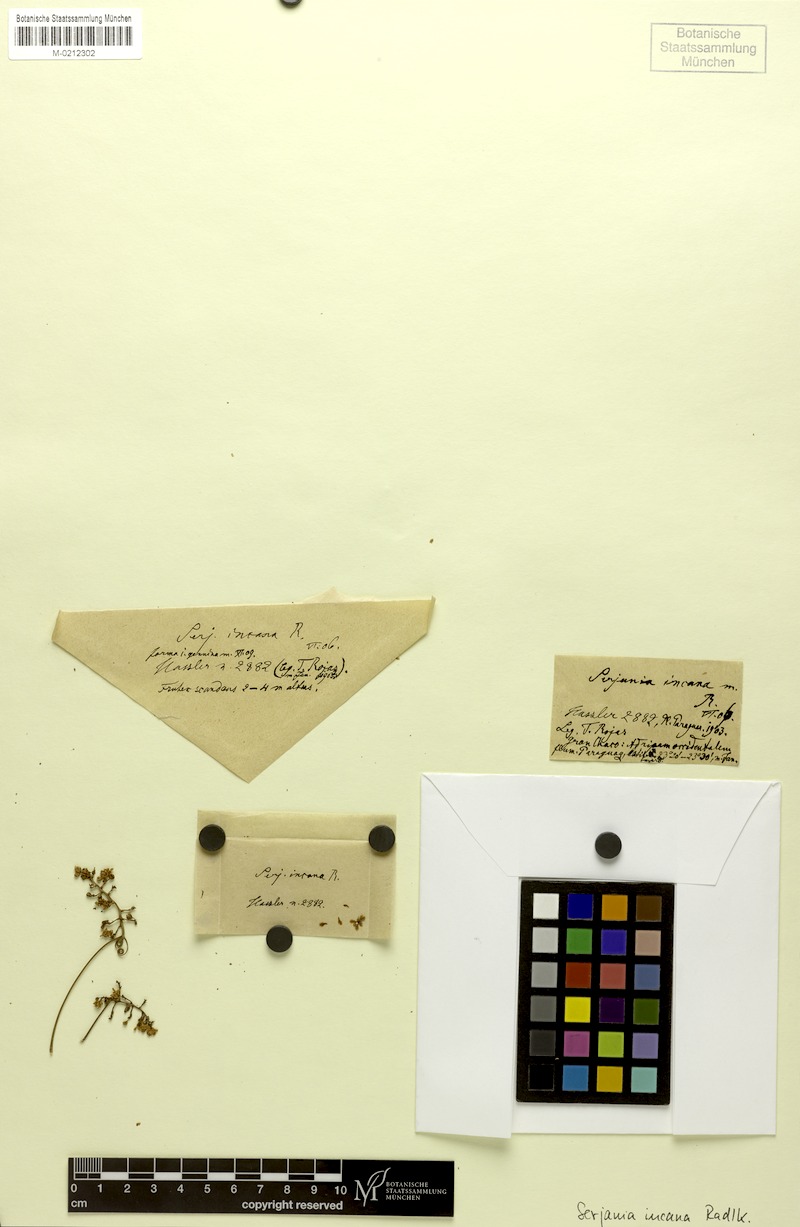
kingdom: Plantae
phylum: Tracheophyta
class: Magnoliopsida
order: Sapindales
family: Sapindaceae
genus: Serjania
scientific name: Serjania incana
